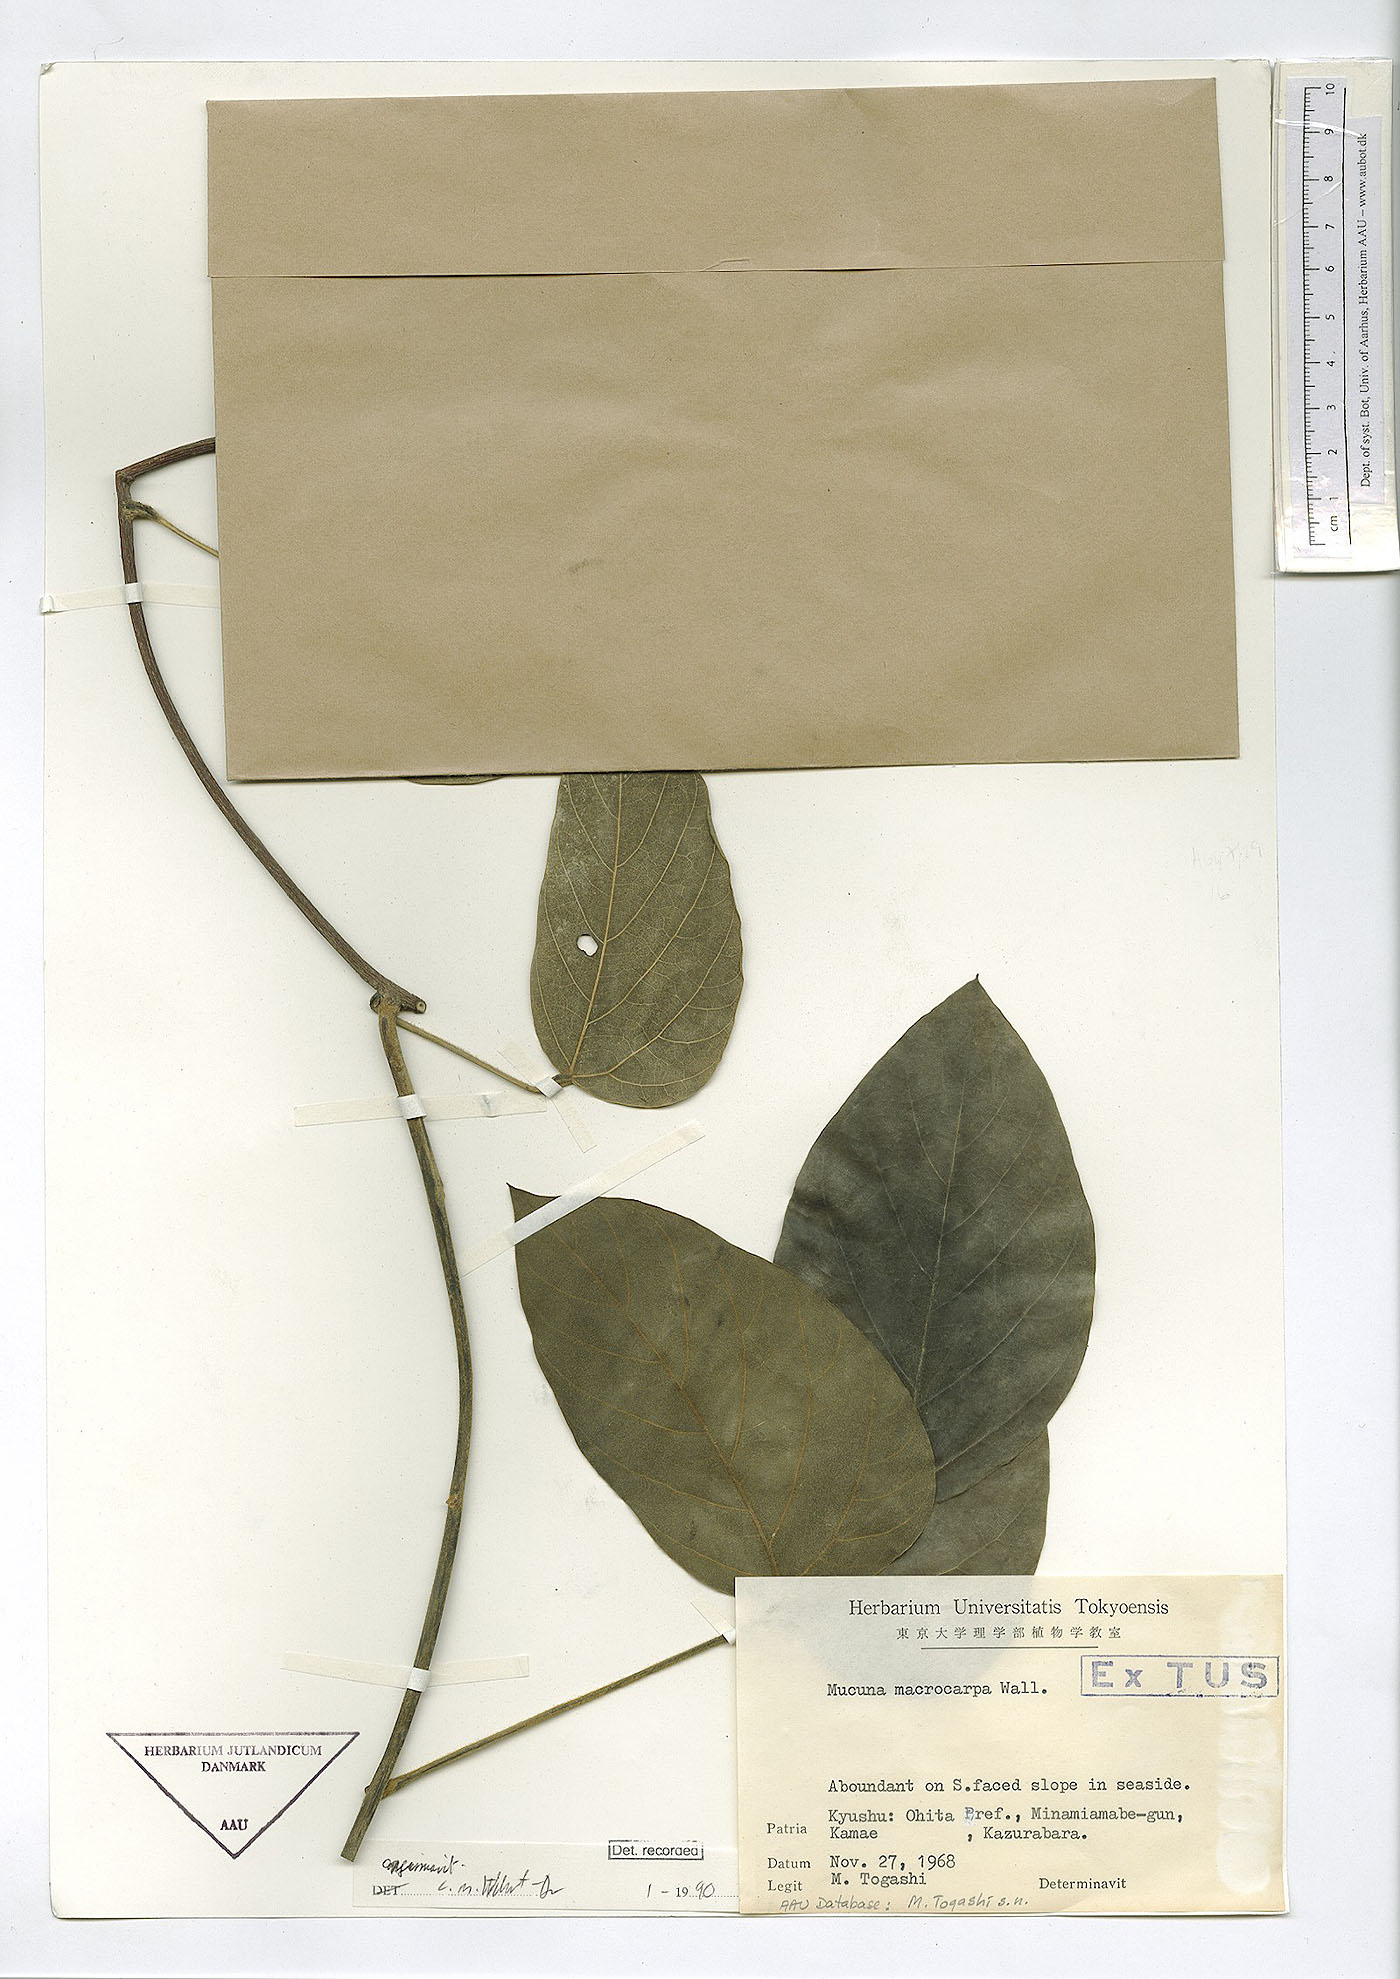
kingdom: Plantae
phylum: Tracheophyta
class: Magnoliopsida
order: Fabales
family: Fabaceae
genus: Mucuna
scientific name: Mucuna macrocarpa
